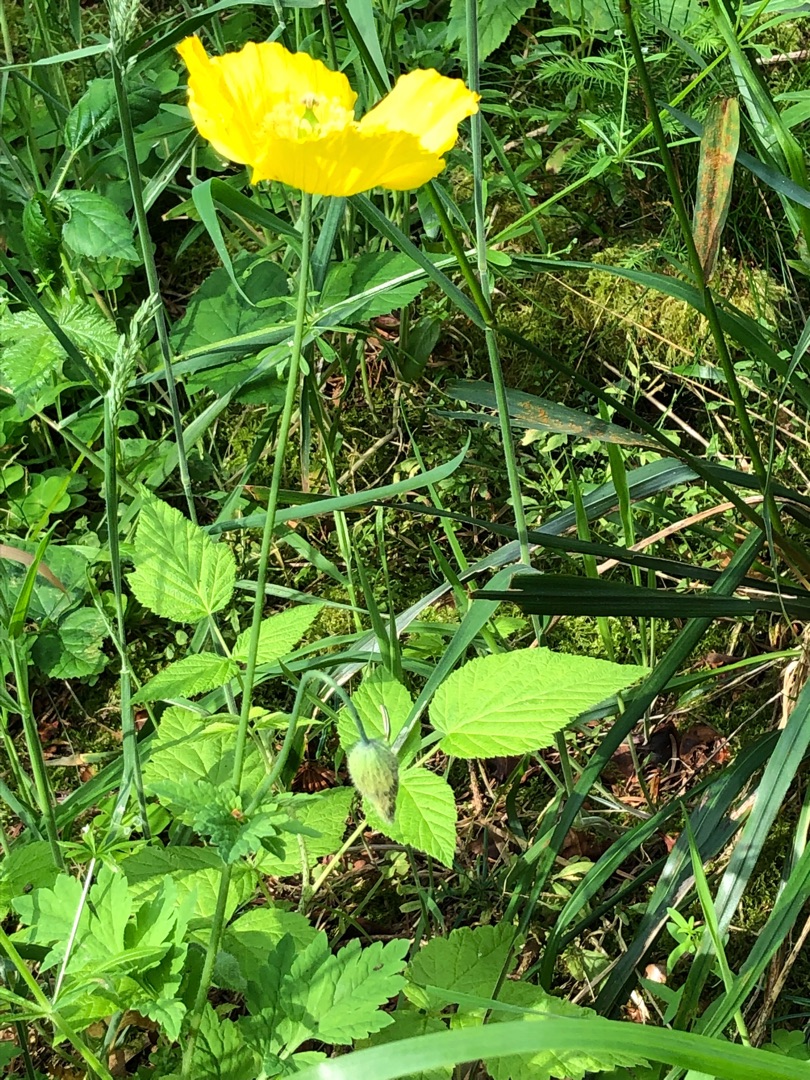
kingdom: Plantae
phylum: Tracheophyta
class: Magnoliopsida
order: Ranunculales
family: Papaveraceae
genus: Papaver
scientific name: Papaver cambricum
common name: Skov-valmue
